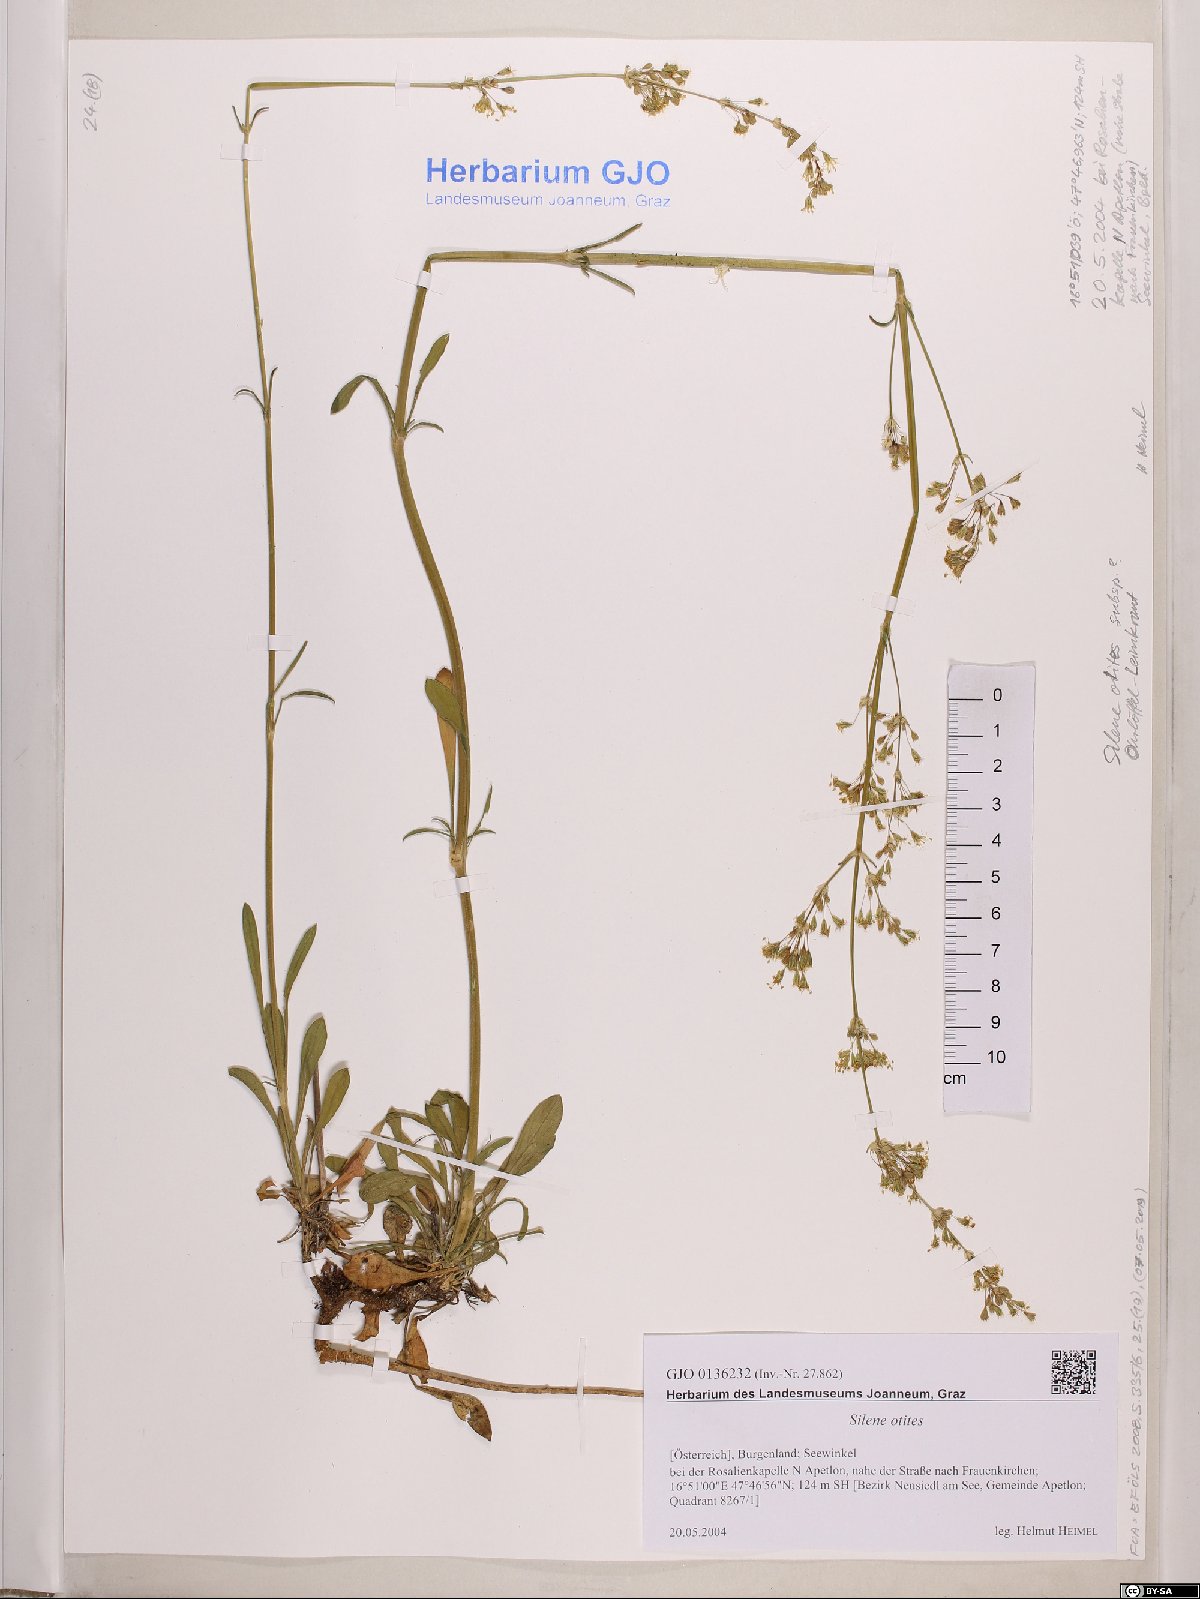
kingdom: Plantae
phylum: Tracheophyta
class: Magnoliopsida
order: Caryophyllales
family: Caryophyllaceae
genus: Silene
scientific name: Silene otites
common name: Spanish catchfly
